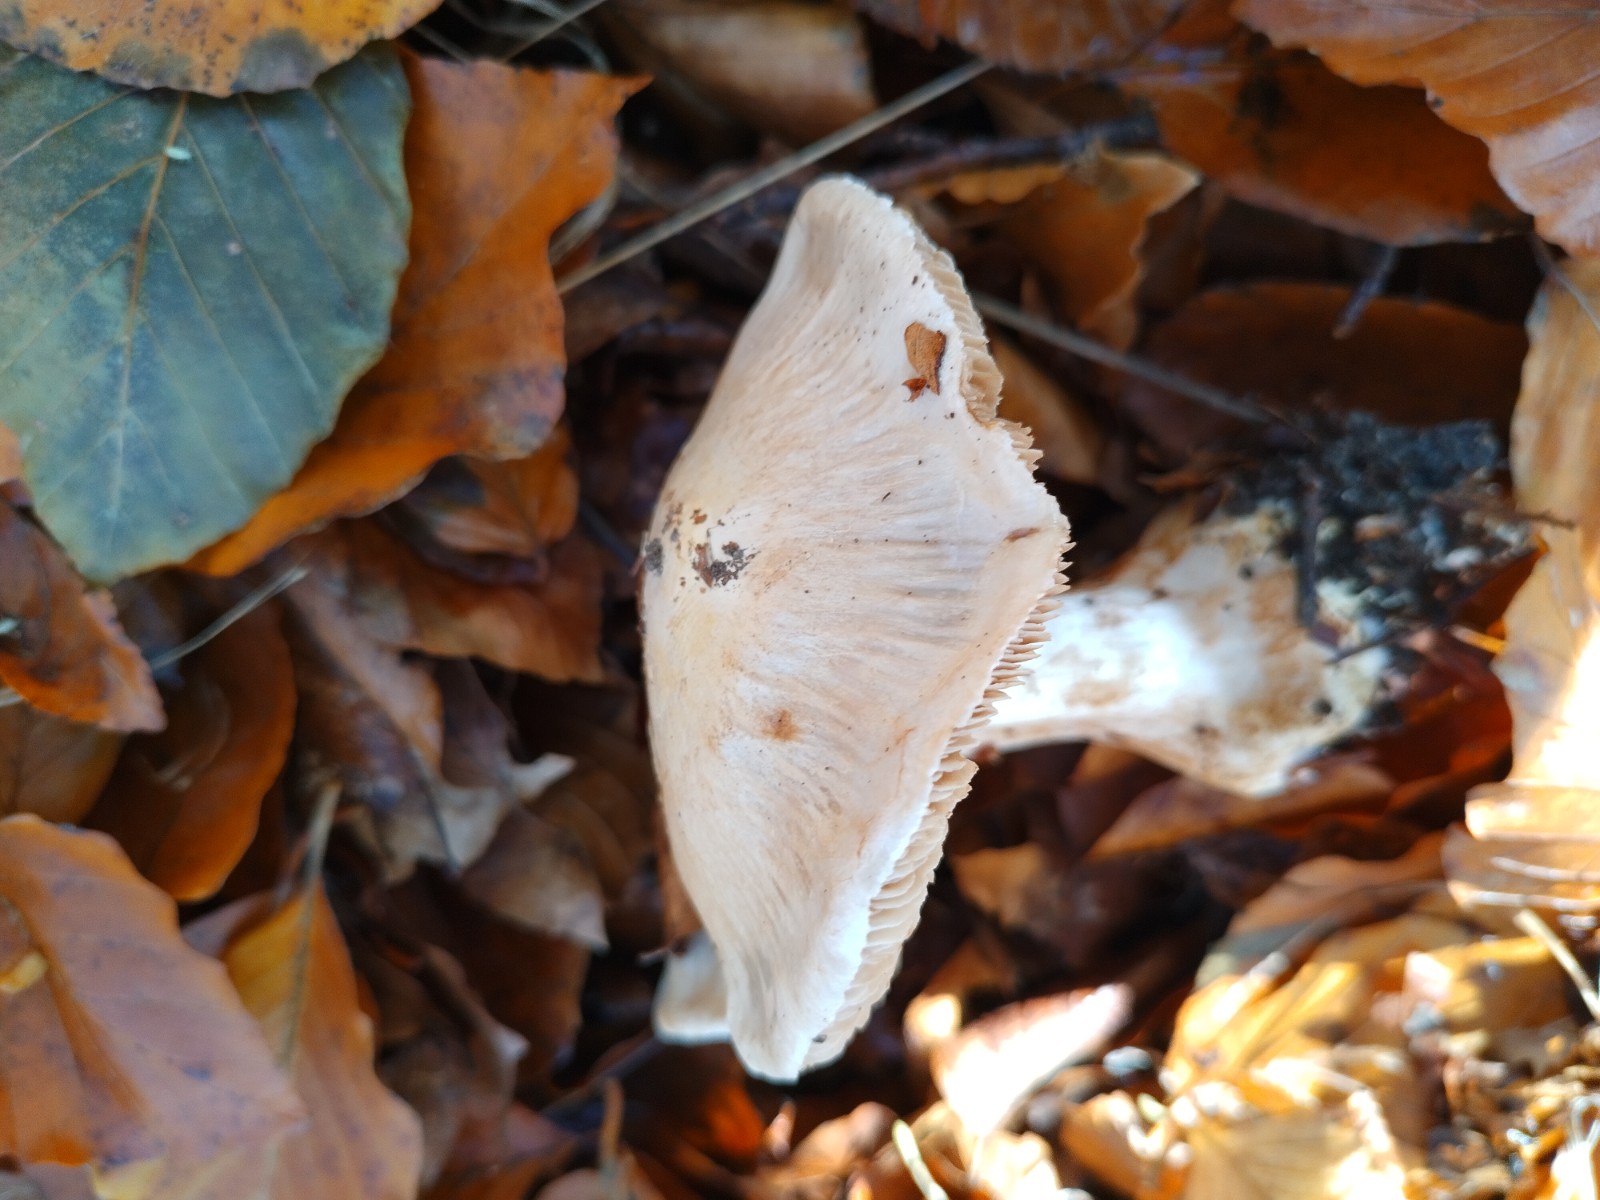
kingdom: Fungi
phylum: Basidiomycota
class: Agaricomycetes
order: Agaricales
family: Cortinariaceae
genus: Cortinarius
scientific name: Cortinarius
